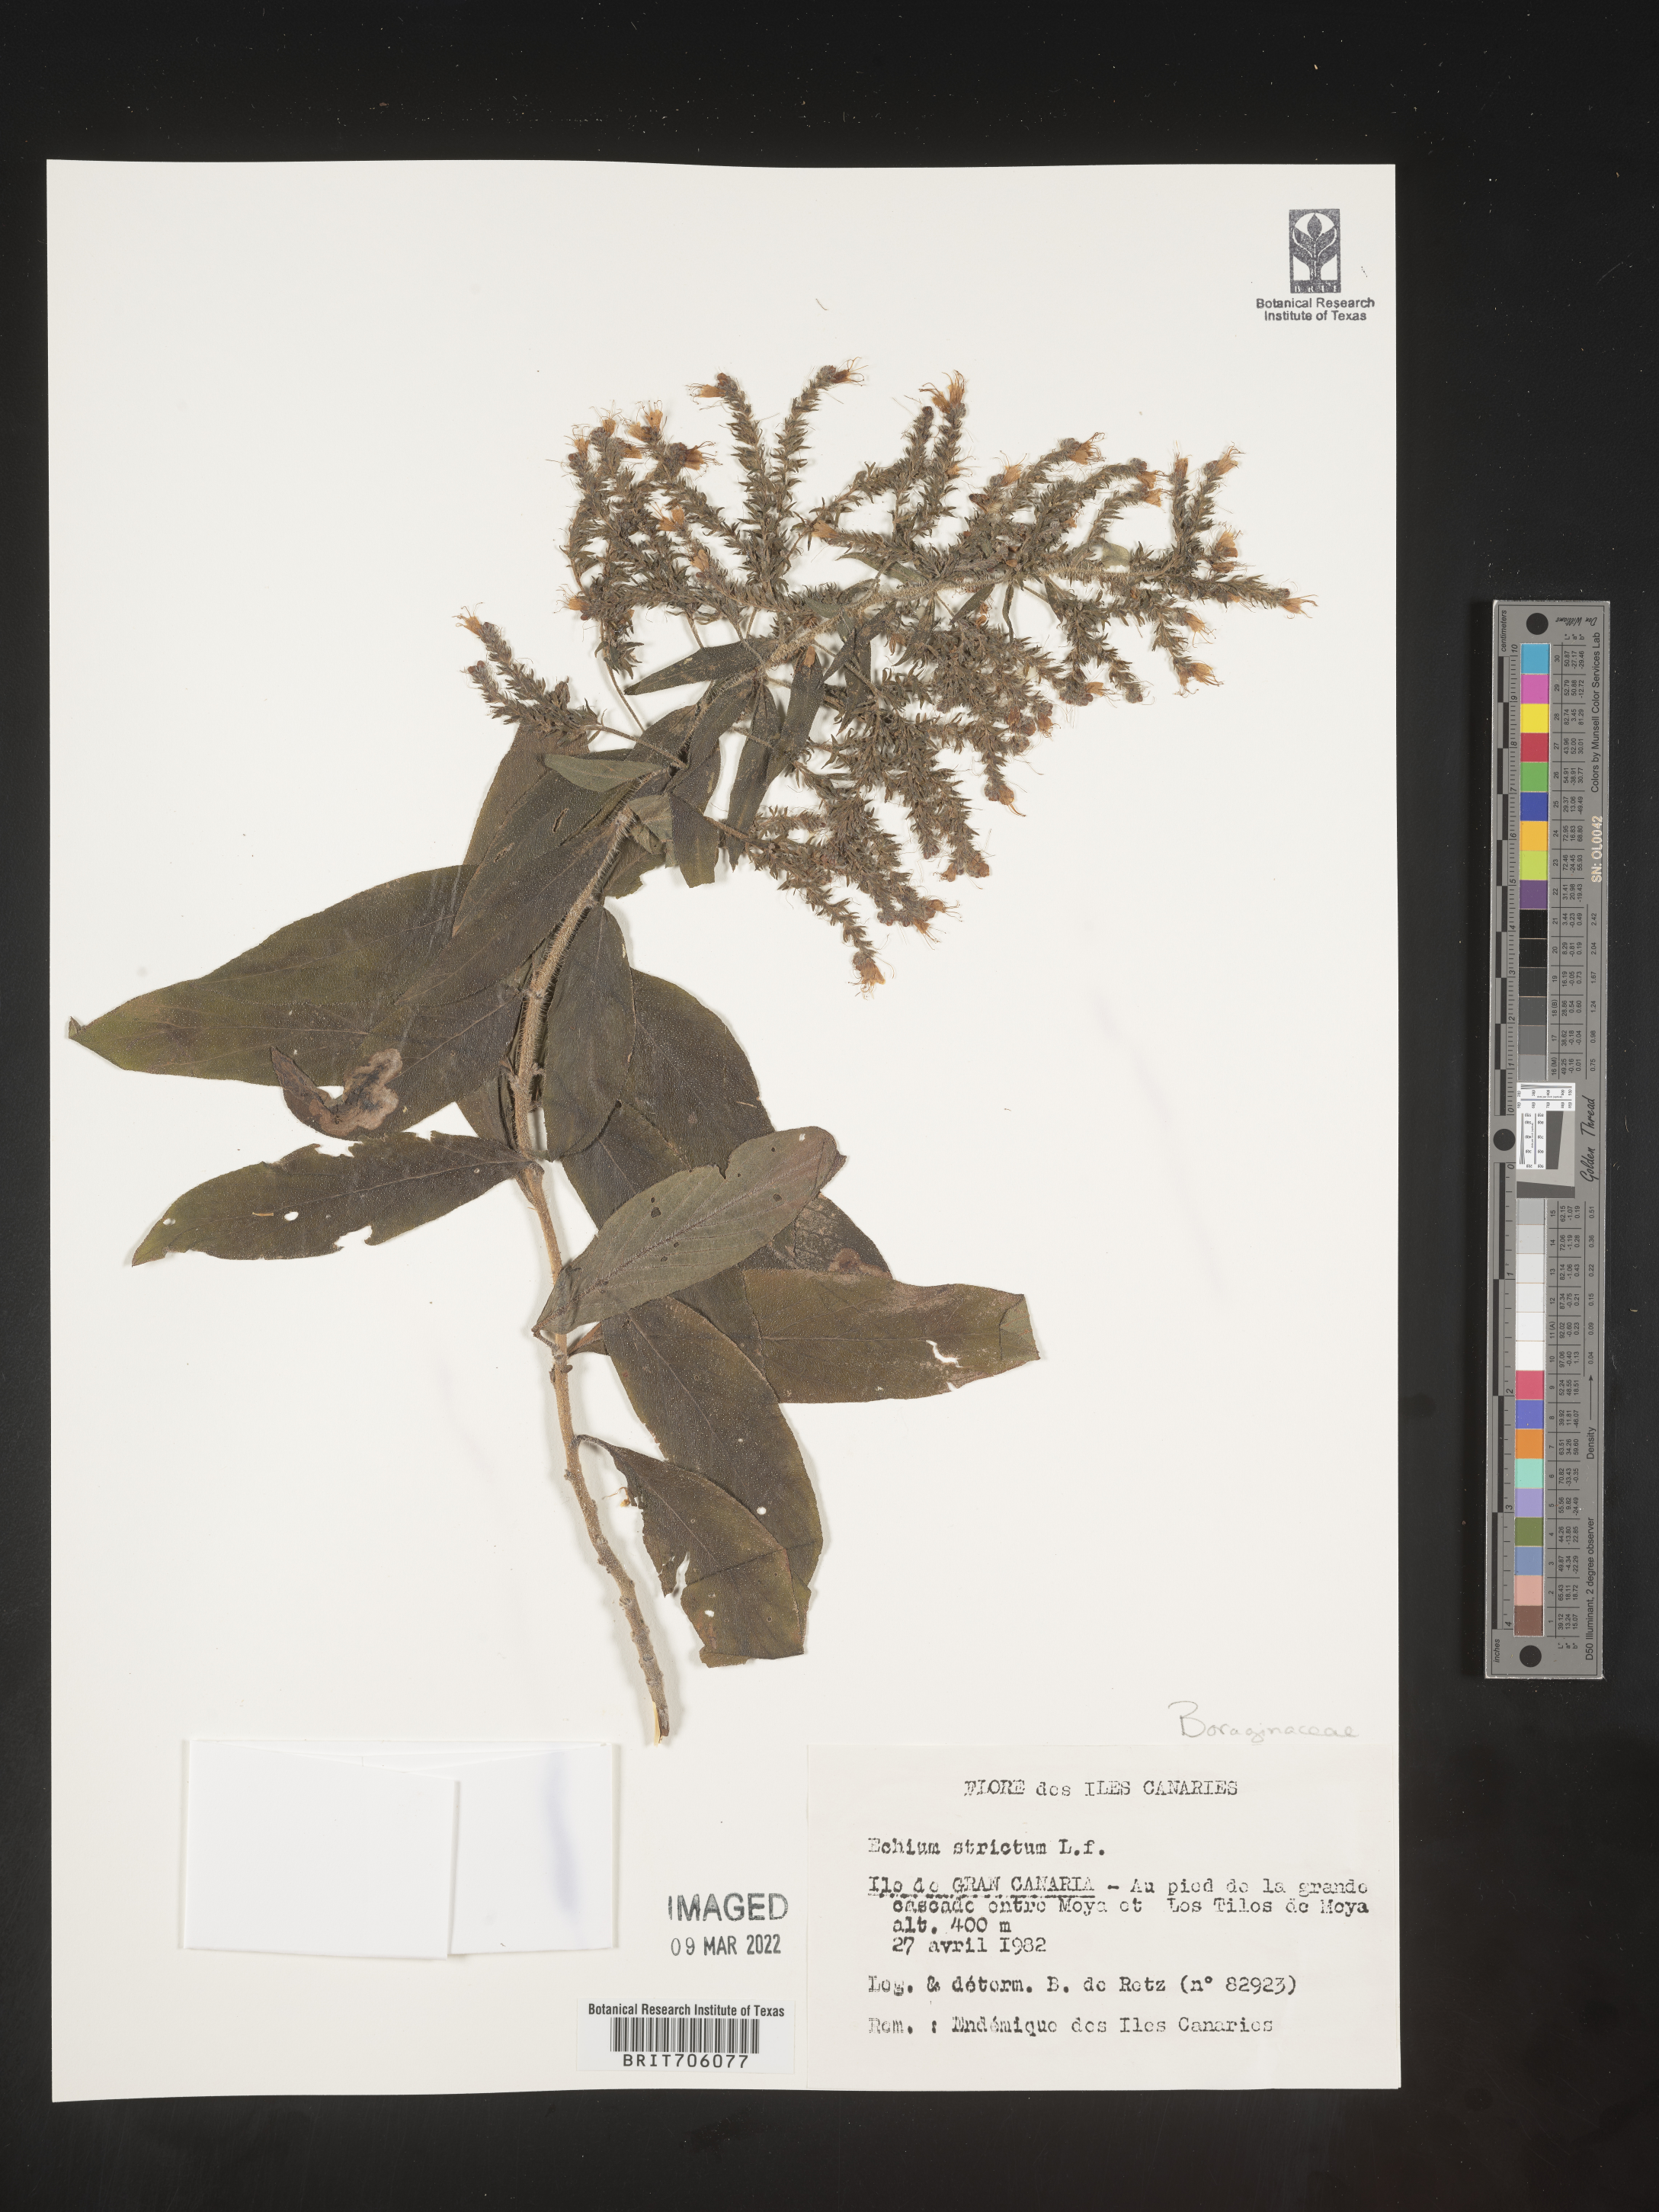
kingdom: Plantae
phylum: Tracheophyta
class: Magnoliopsida
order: Boraginales
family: Boraginaceae
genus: Echium
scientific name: Echium
